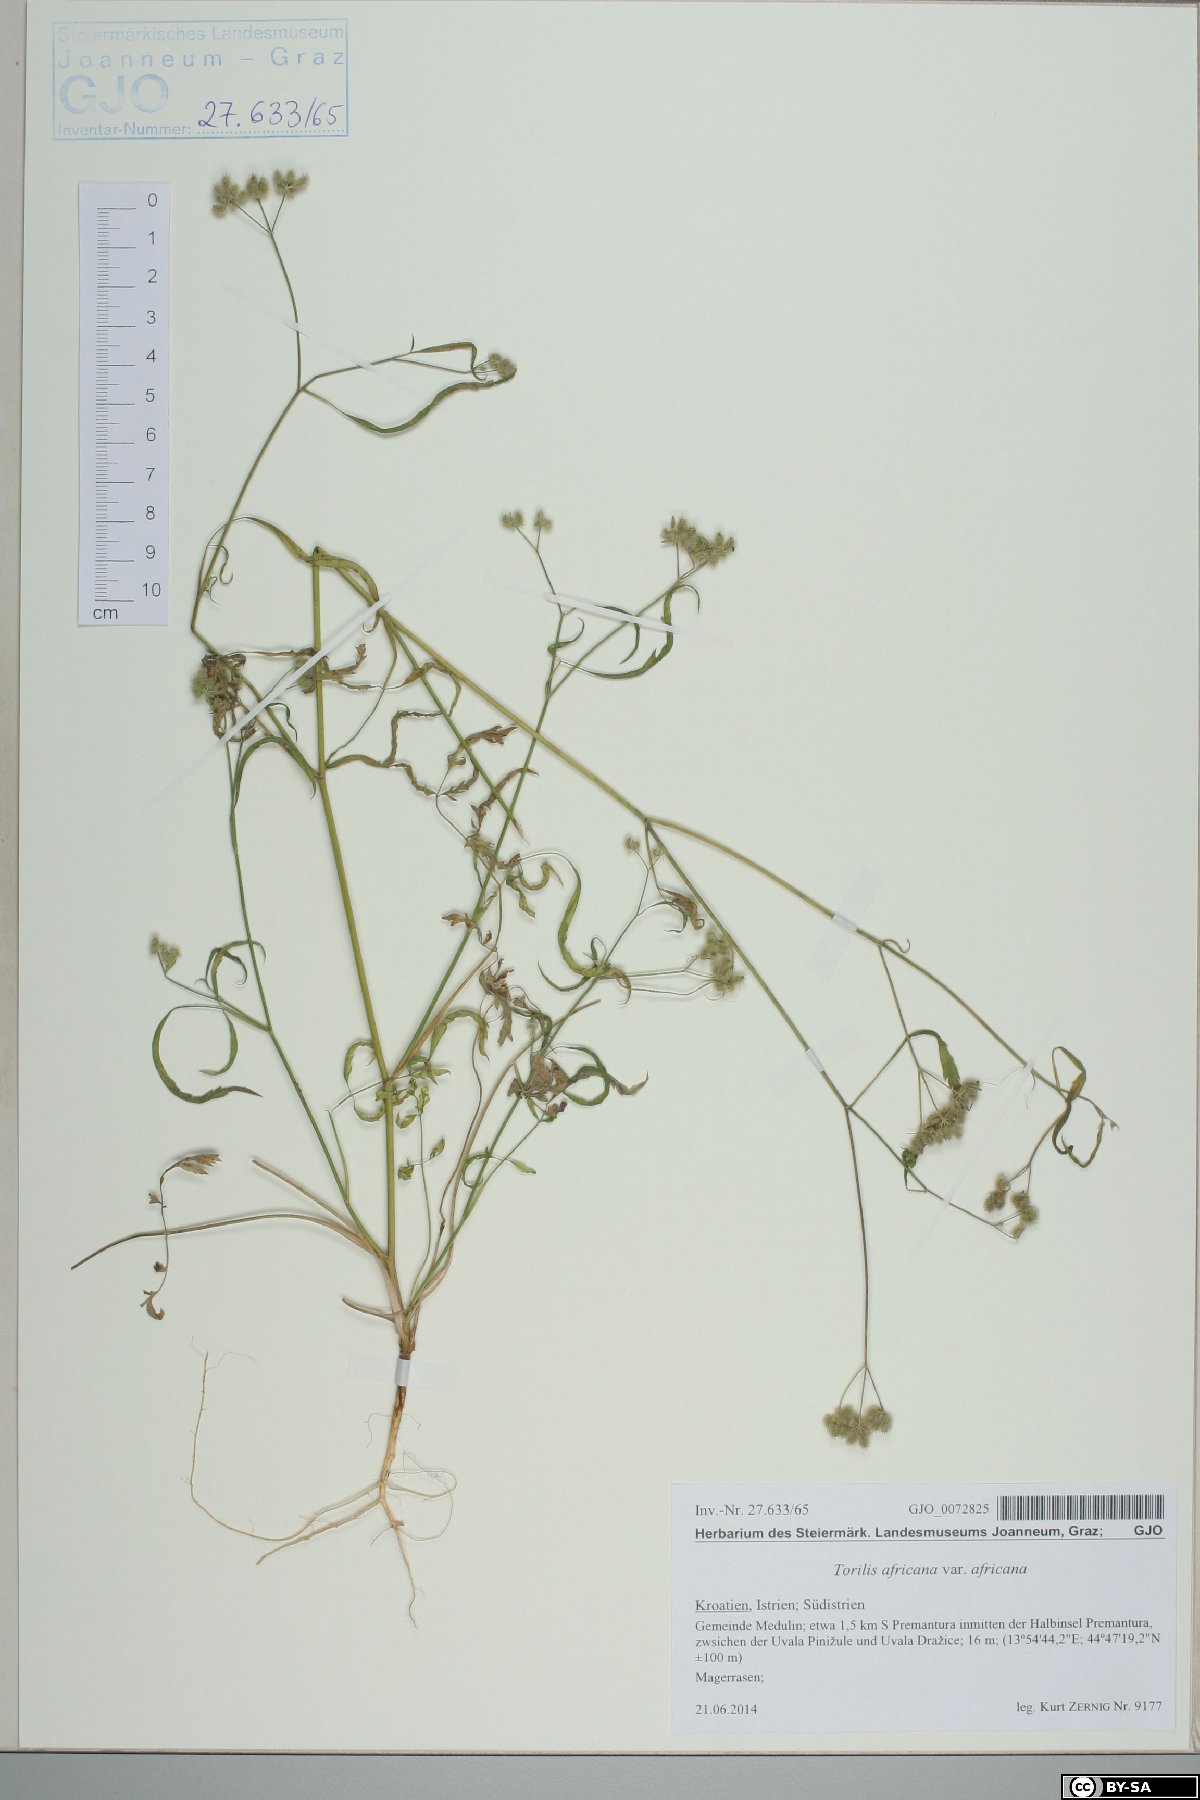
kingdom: Plantae
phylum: Tracheophyta
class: Magnoliopsida
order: Apiales
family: Apiaceae
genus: Torilis
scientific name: Torilis africana
